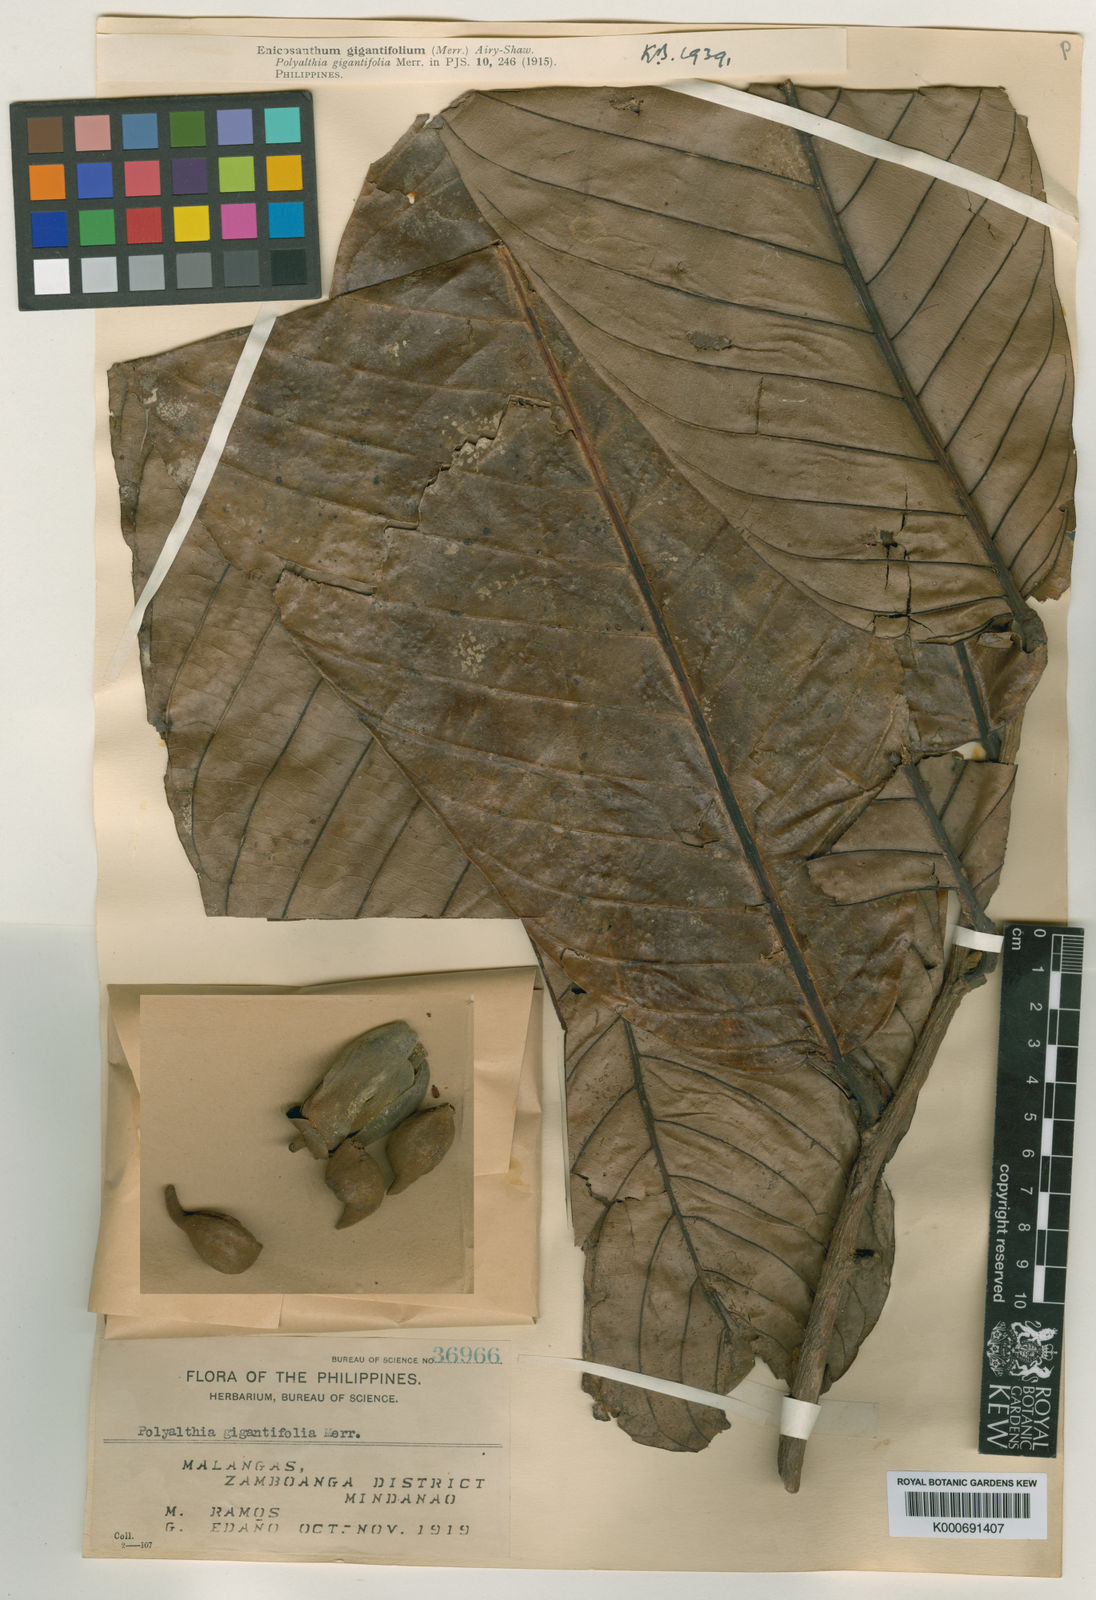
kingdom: Plantae
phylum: Tracheophyta
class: Magnoliopsida
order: Magnoliales
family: Annonaceae
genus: Enicosanthum
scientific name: Enicosanthum gigantifolium
